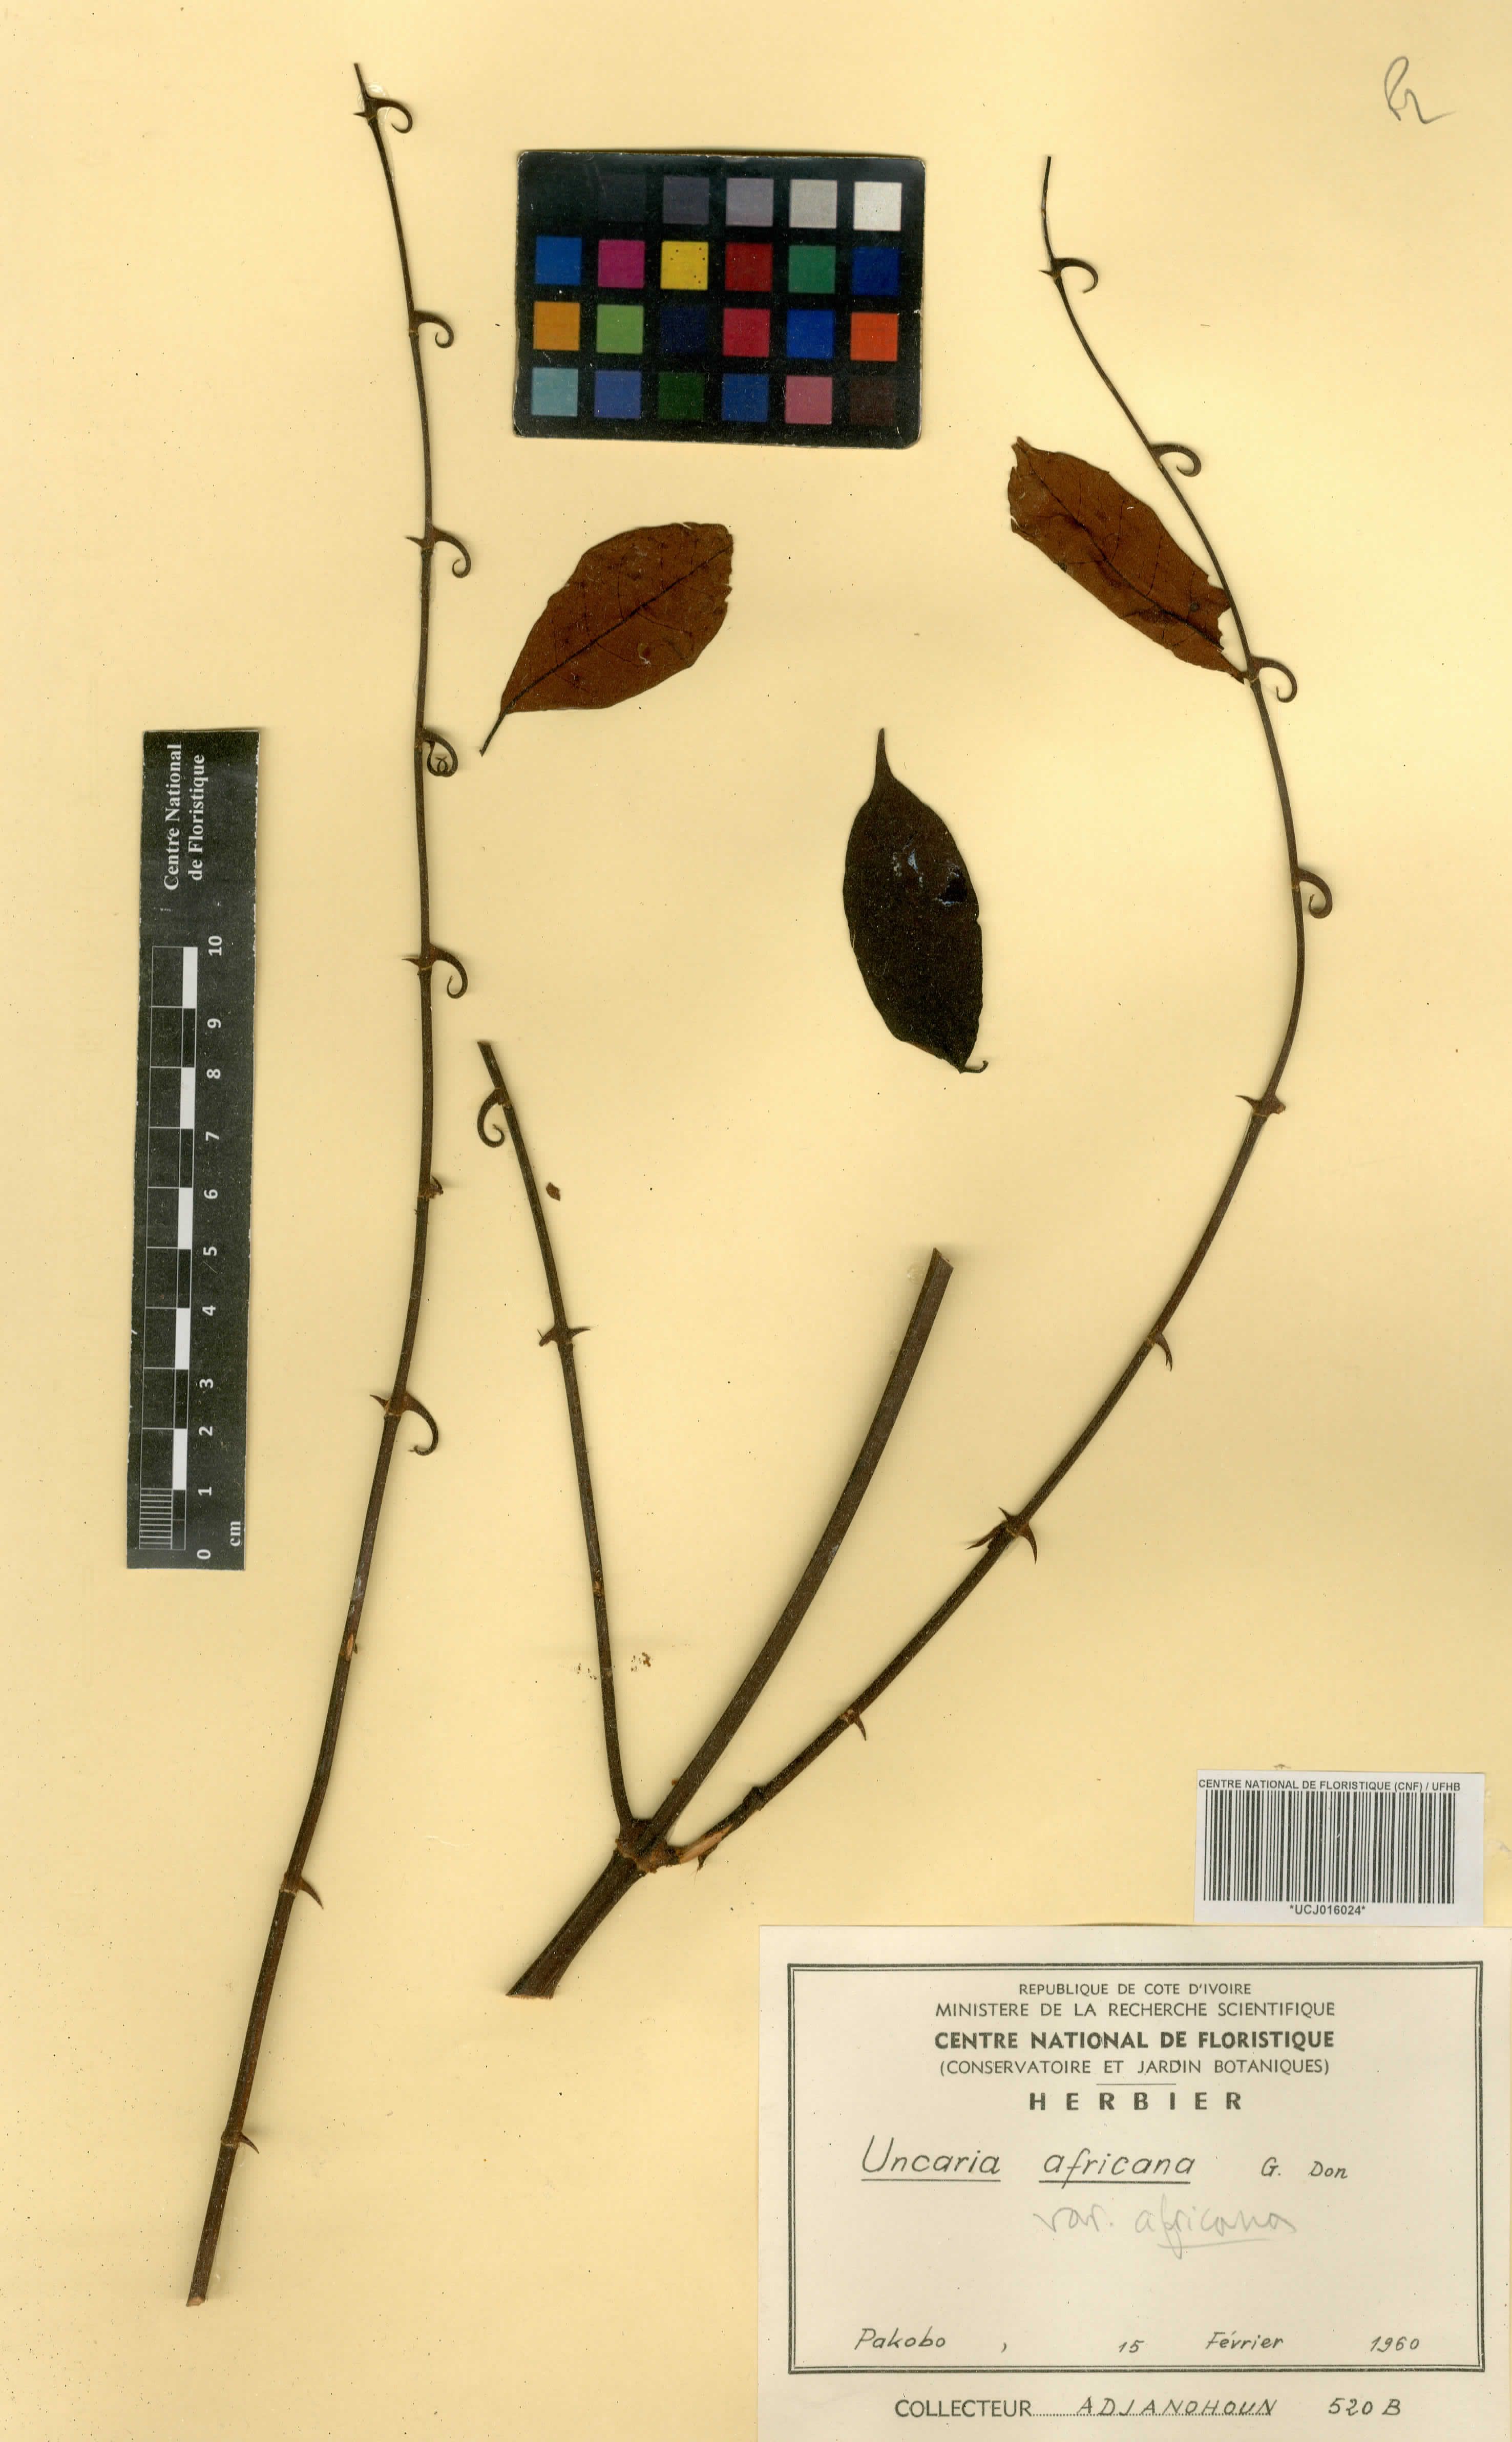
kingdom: Plantae
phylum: Tracheophyta
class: Magnoliopsida
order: Gentianales
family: Rubiaceae
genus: Uncaria
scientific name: Uncaria africana
